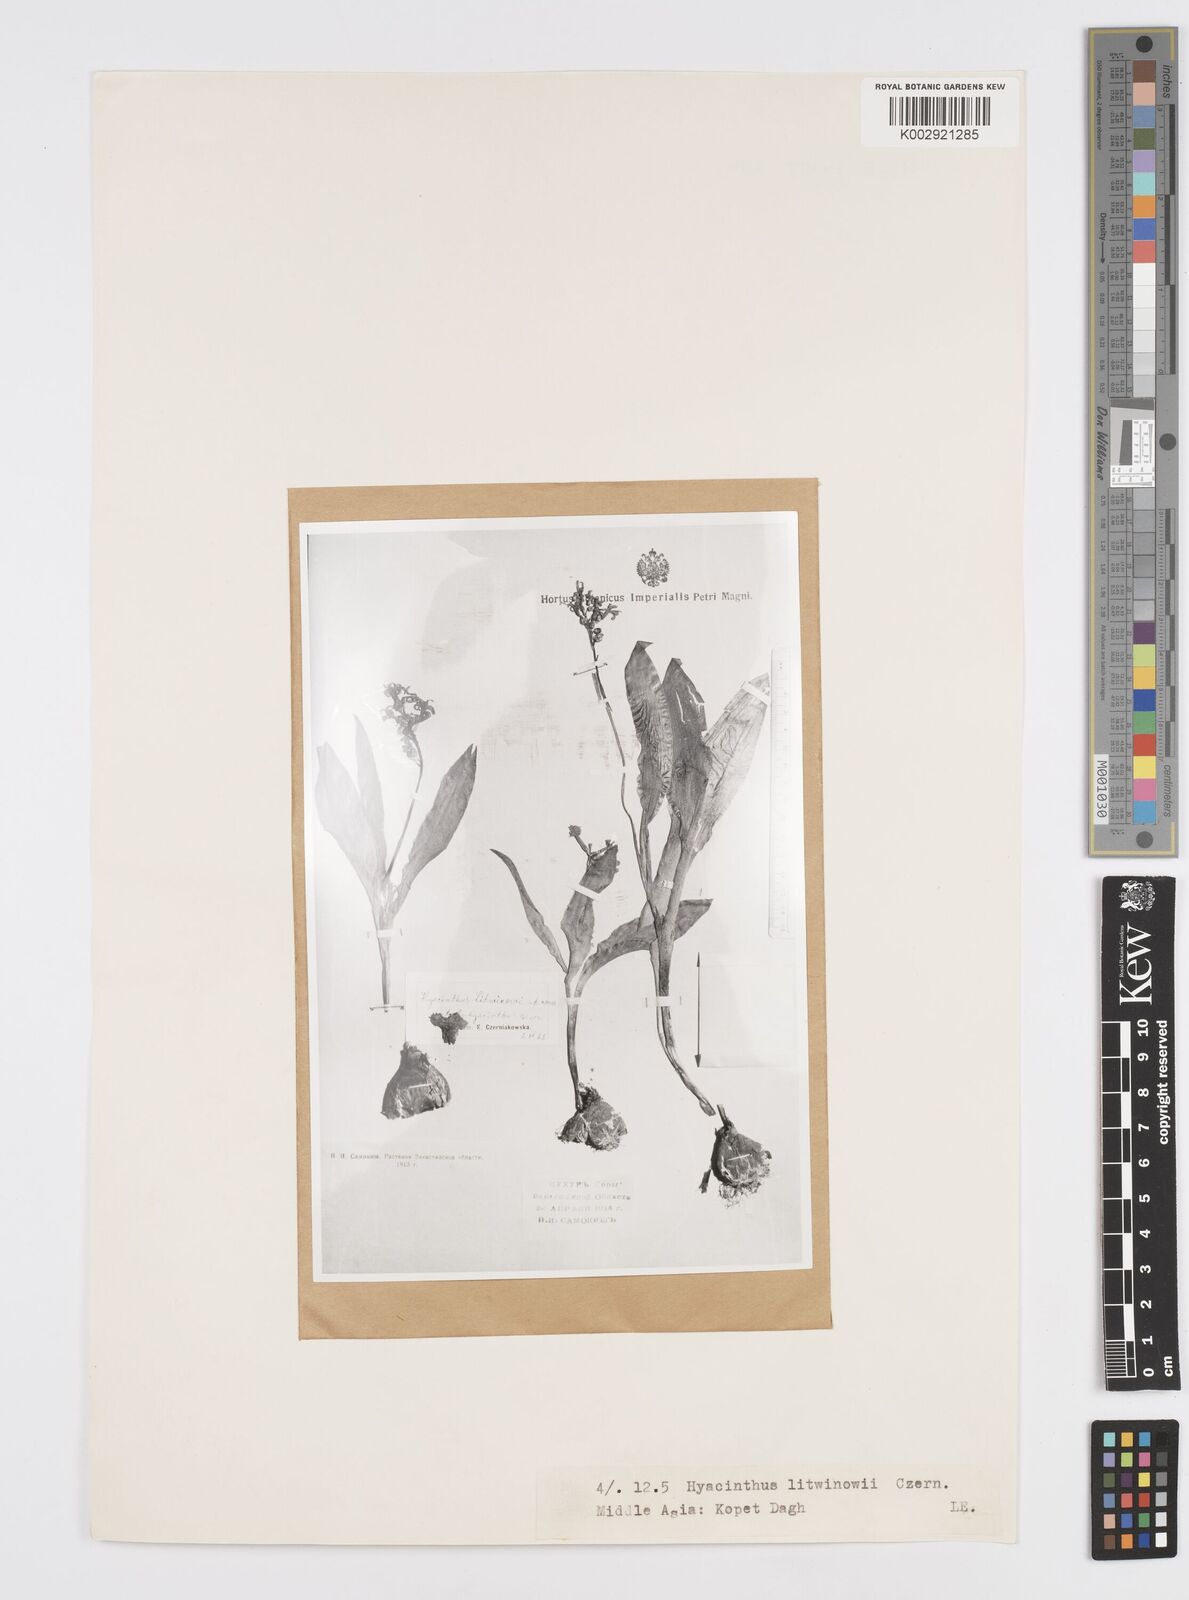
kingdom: Plantae
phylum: Tracheophyta
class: Liliopsida
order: Asparagales
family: Asparagaceae
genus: Hyacinthus
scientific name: Hyacinthus litwinowii
